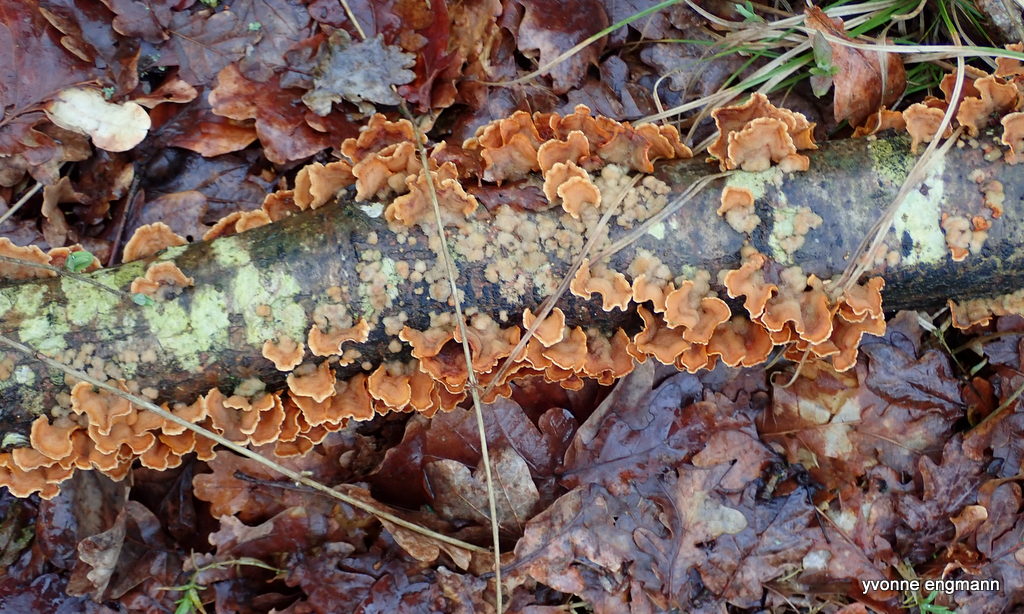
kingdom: Fungi
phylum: Basidiomycota
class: Agaricomycetes
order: Russulales
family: Stereaceae
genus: Stereum
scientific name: Stereum hirsutum
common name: håret lædersvamp
